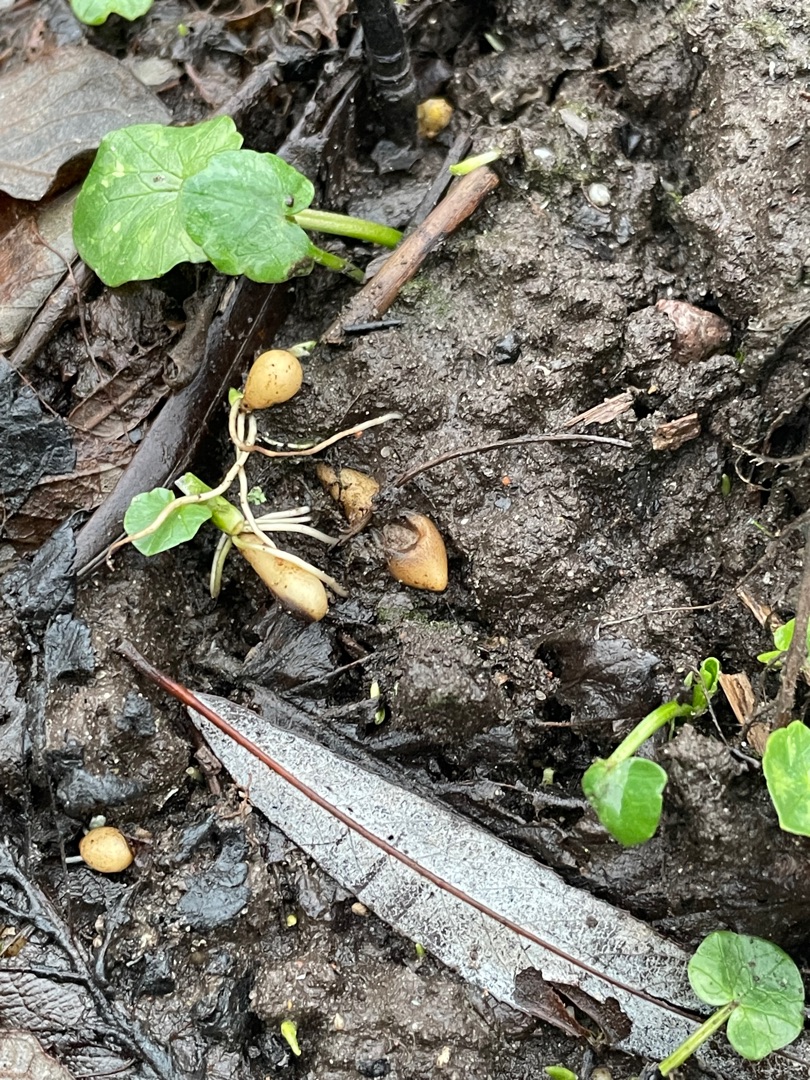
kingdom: Plantae
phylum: Tracheophyta
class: Magnoliopsida
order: Ranunculales
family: Ranunculaceae
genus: Ficaria
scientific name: Ficaria verna
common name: Vorterod
